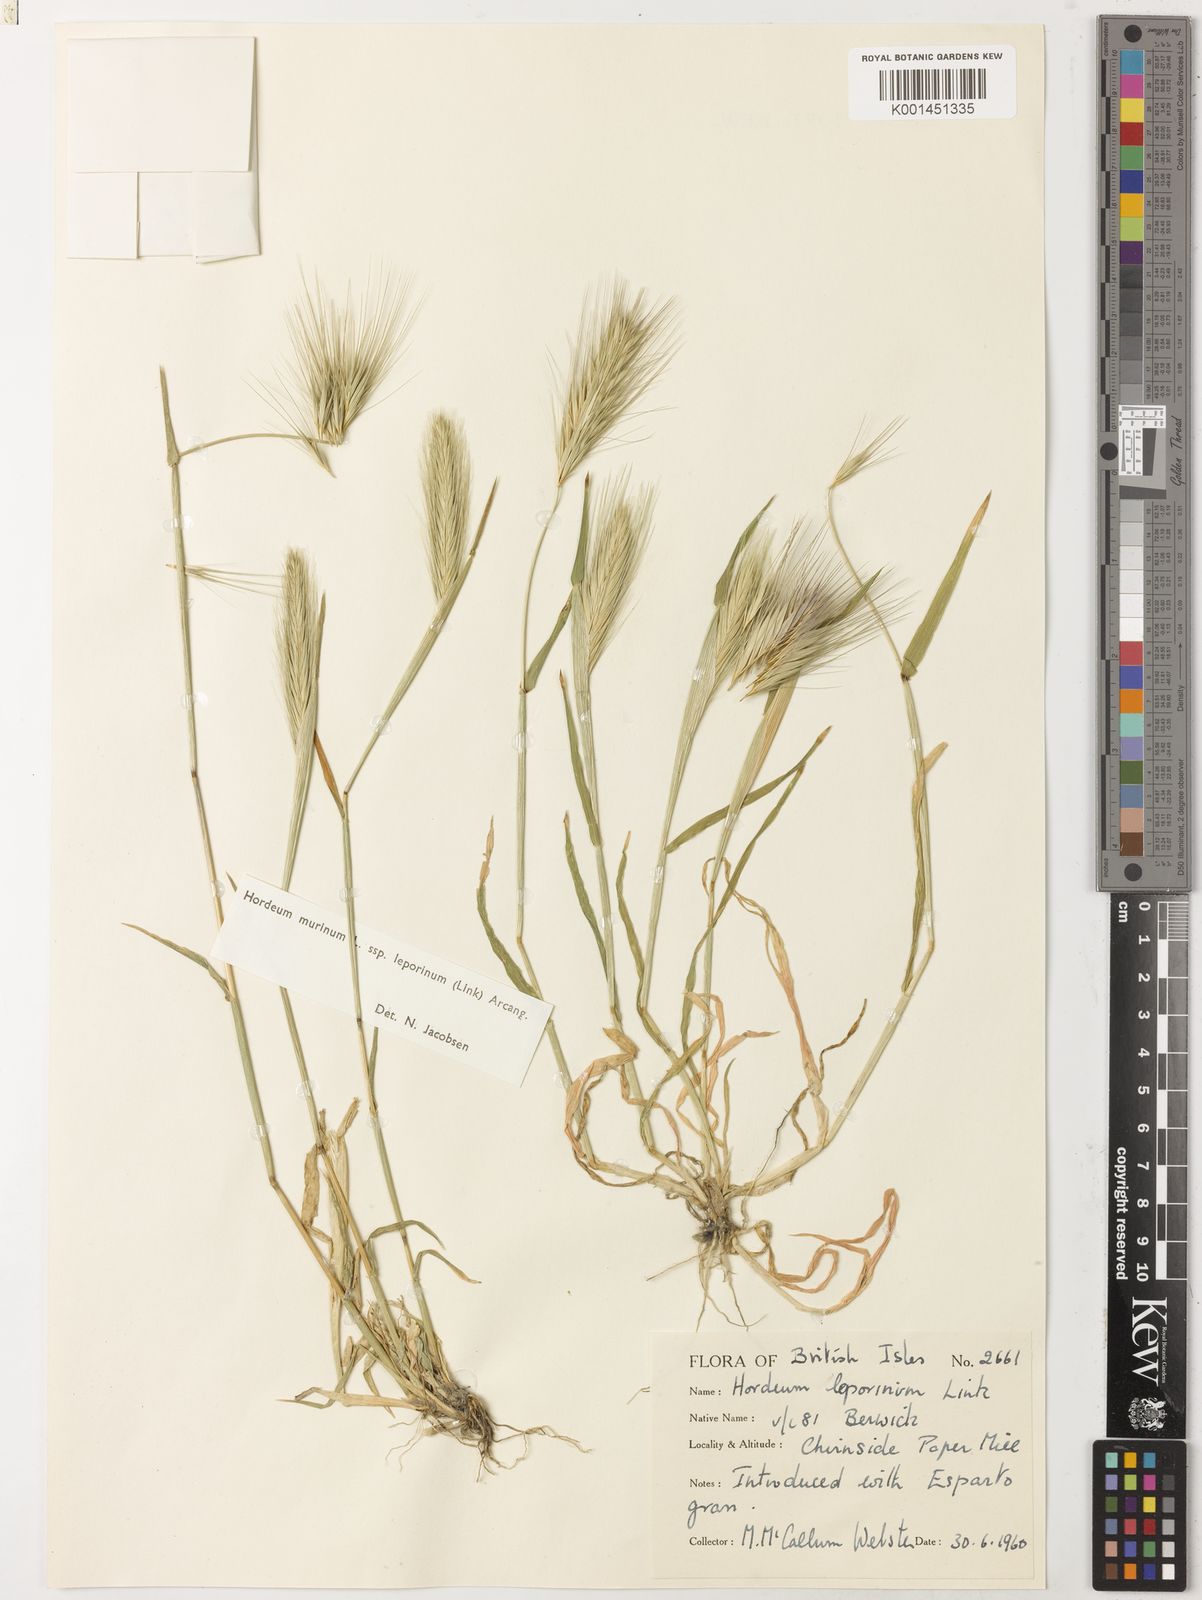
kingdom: Plantae
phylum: Tracheophyta
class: Liliopsida
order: Poales
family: Poaceae
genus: Hordeum
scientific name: Hordeum murinum
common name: Wall barley
